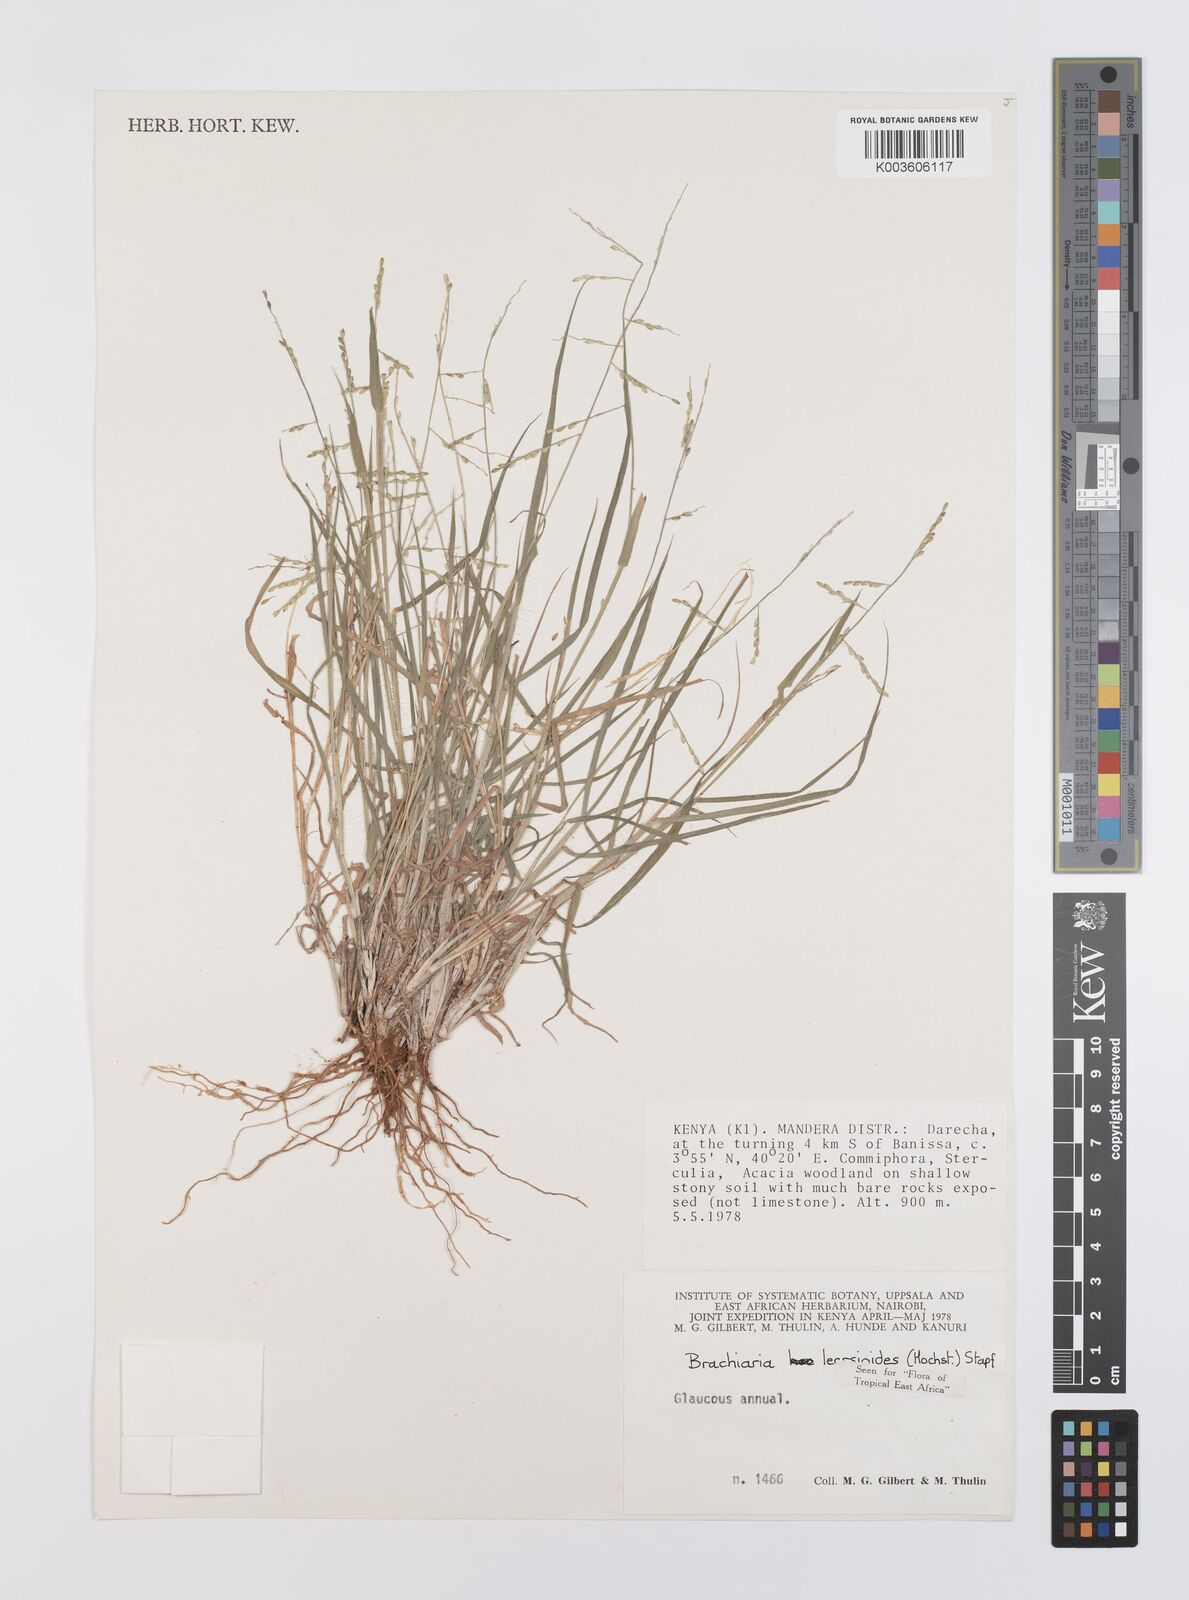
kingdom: Plantae
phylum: Tracheophyta
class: Liliopsida
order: Poales
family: Poaceae
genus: Urochloa
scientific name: Urochloa leersioides
